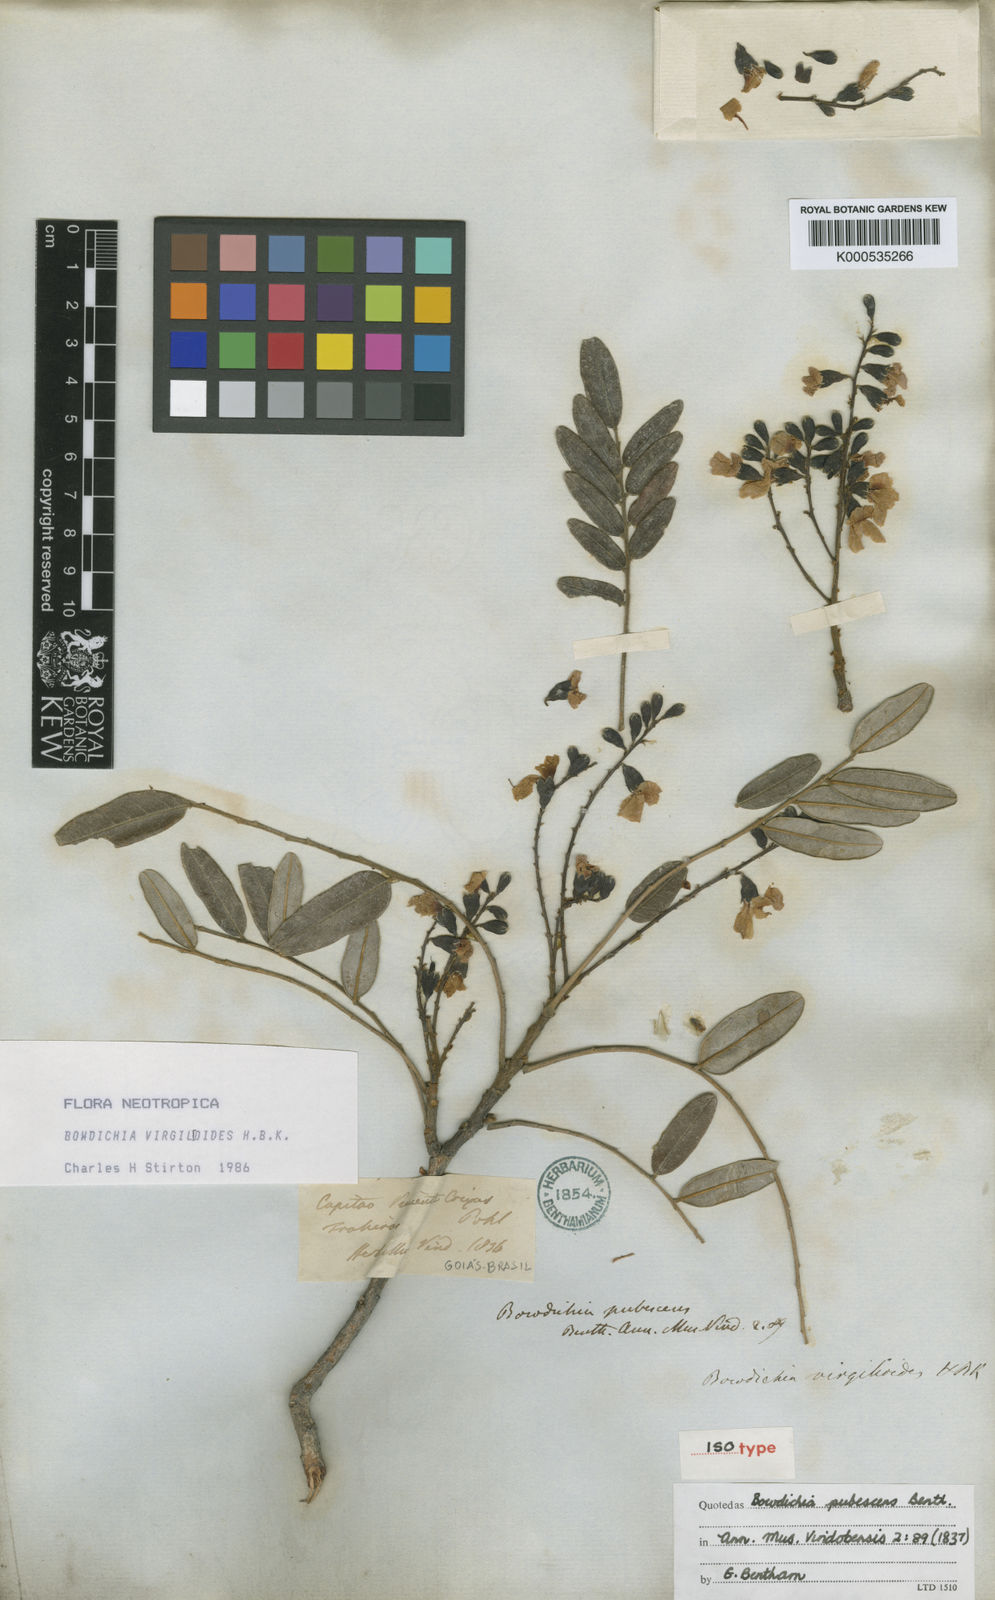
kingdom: Plantae
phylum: Tracheophyta
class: Magnoliopsida
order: Fabales
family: Fabaceae
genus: Bowdichia
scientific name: Bowdichia virgilioides
